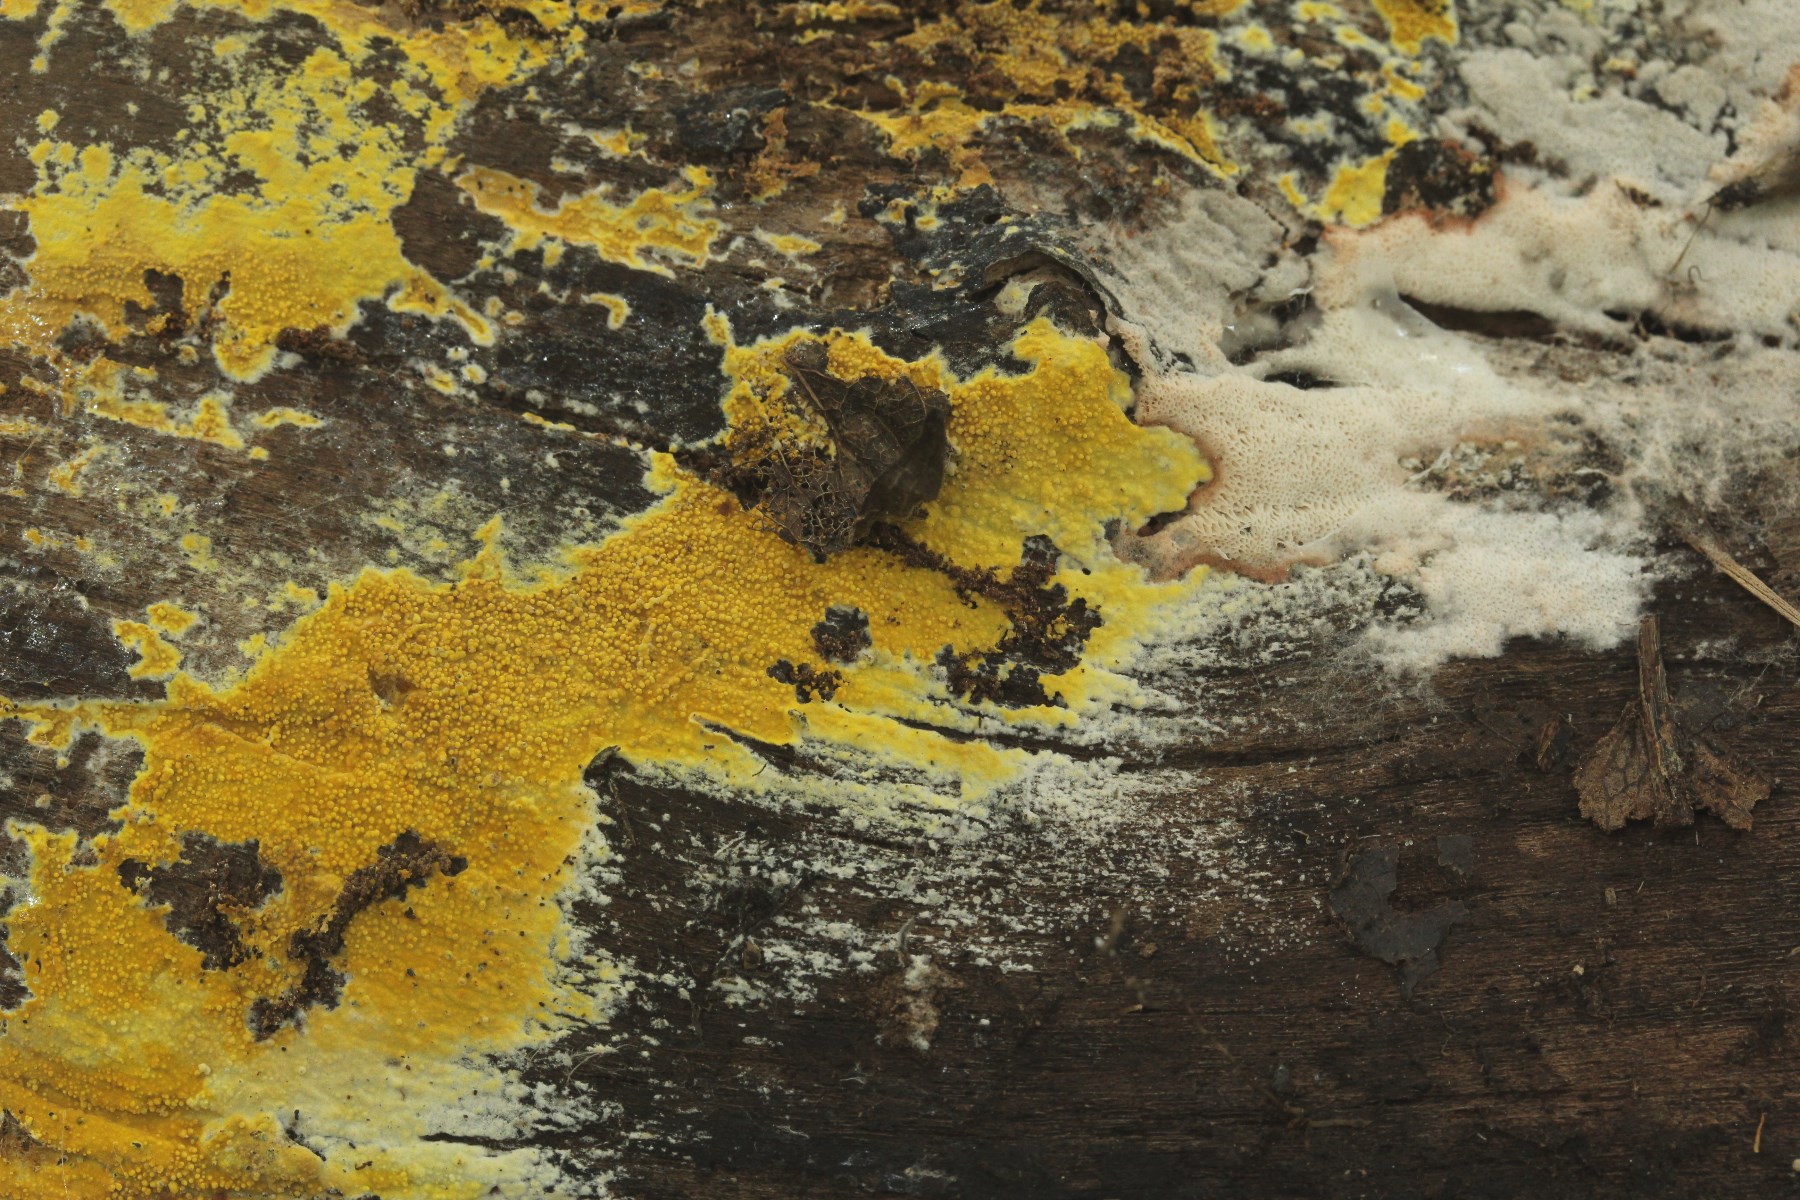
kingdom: Fungi
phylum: Basidiomycota
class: Agaricomycetes
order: Polyporales
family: Meruliaceae
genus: Phlebiodontia
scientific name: Phlebiodontia subochracea
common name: svovl-åresvamp
